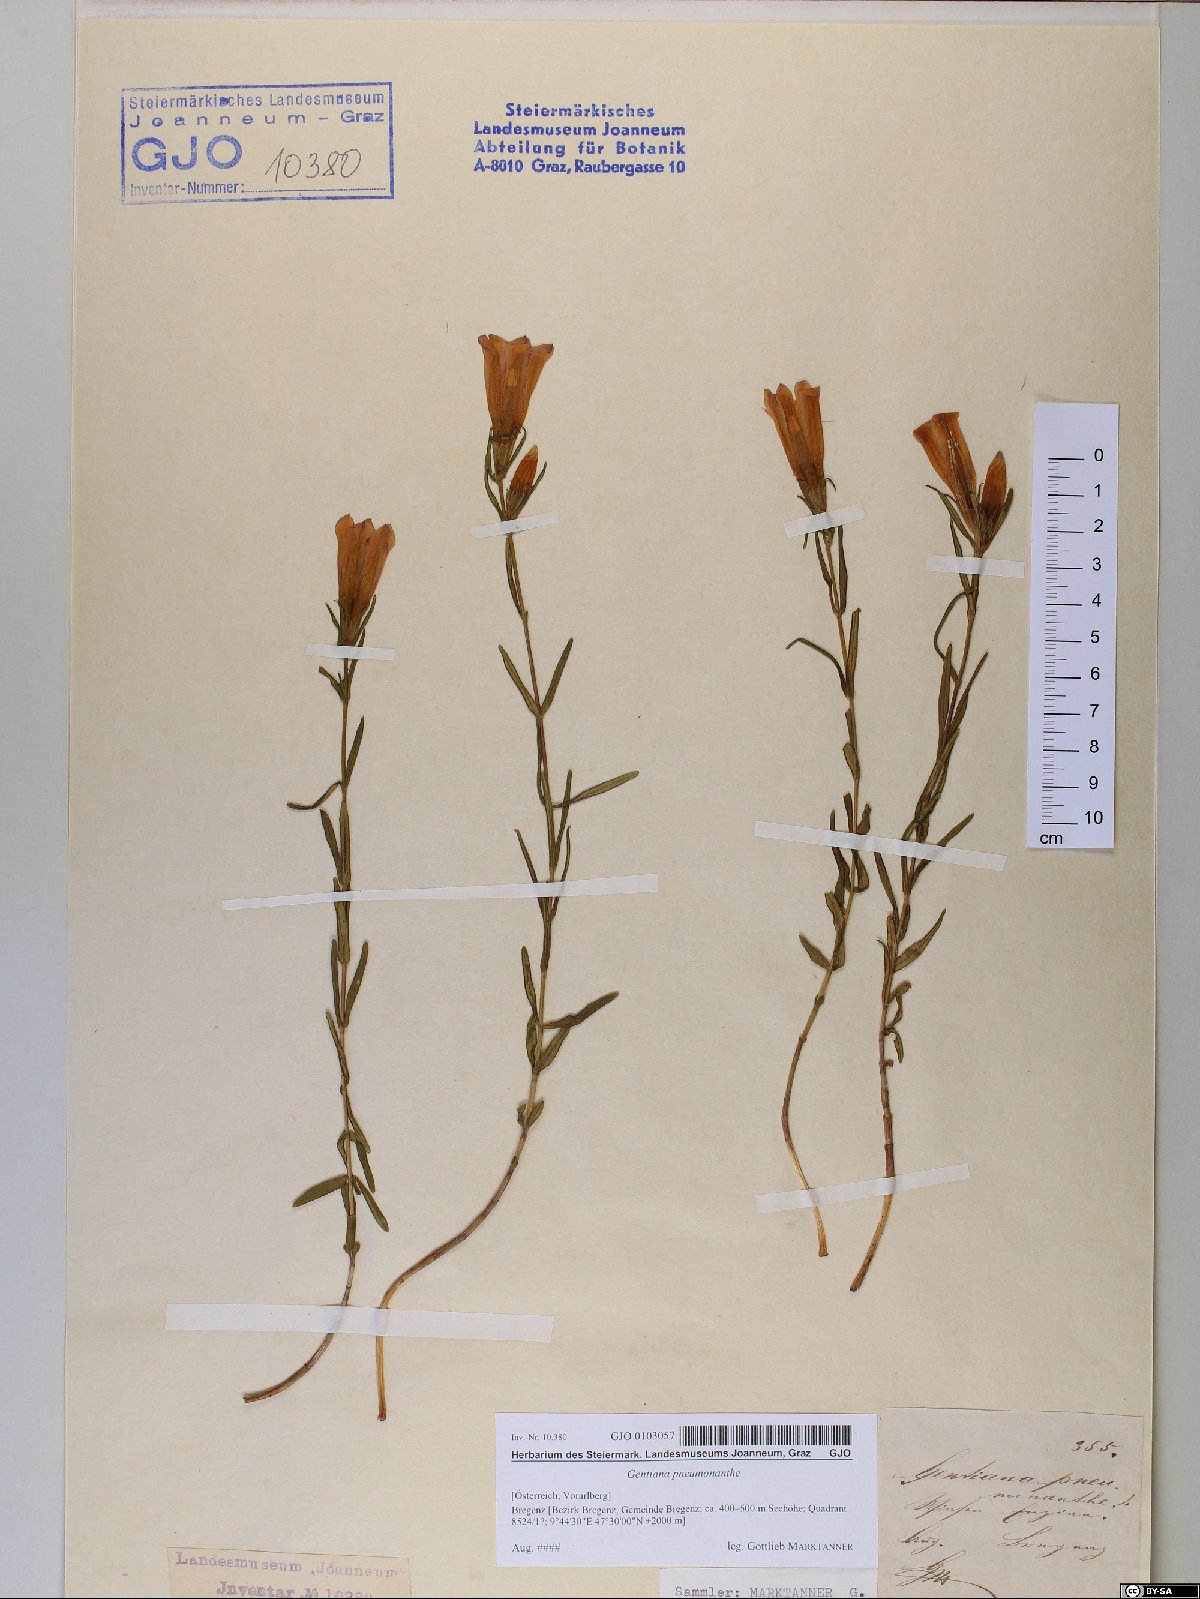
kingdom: Plantae
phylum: Tracheophyta
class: Magnoliopsida
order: Gentianales
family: Gentianaceae
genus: Gentiana
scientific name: Gentiana pneumonanthe
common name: Marsh gentian
